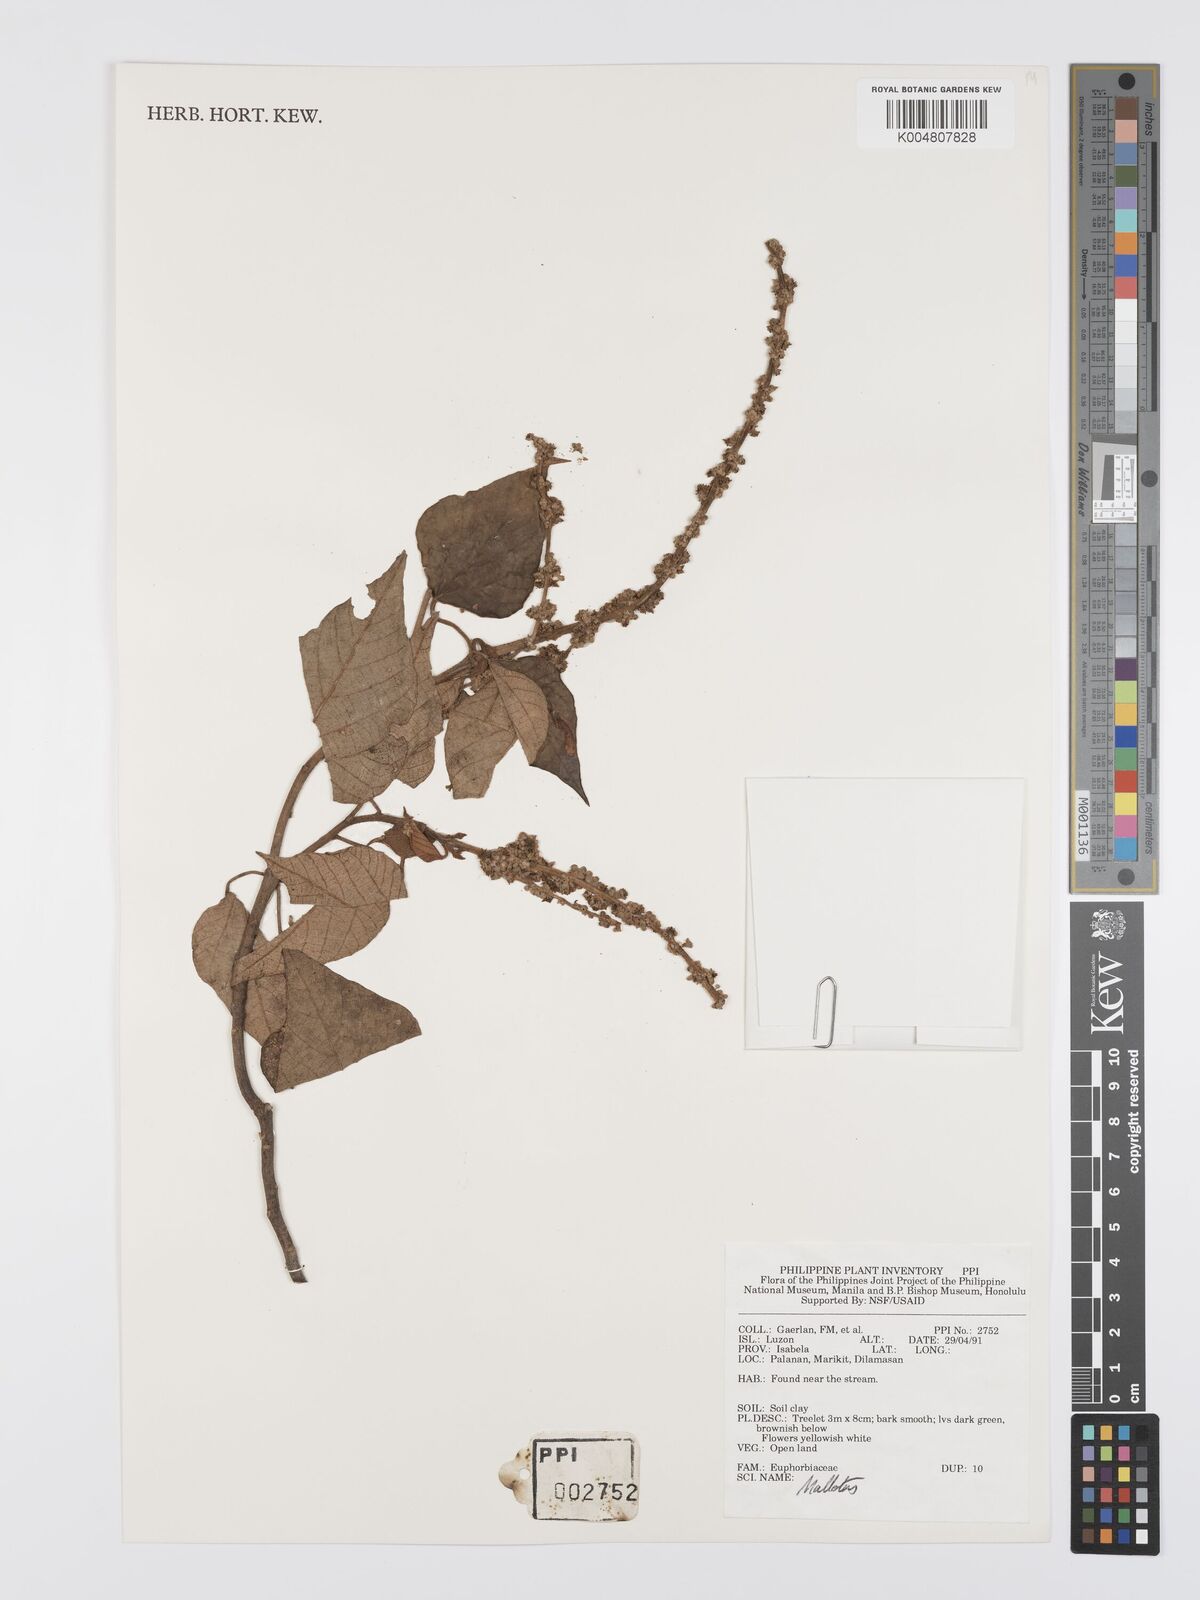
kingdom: Plantae
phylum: Tracheophyta
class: Magnoliopsida
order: Malpighiales
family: Euphorbiaceae
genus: Mallotus
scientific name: Mallotus
